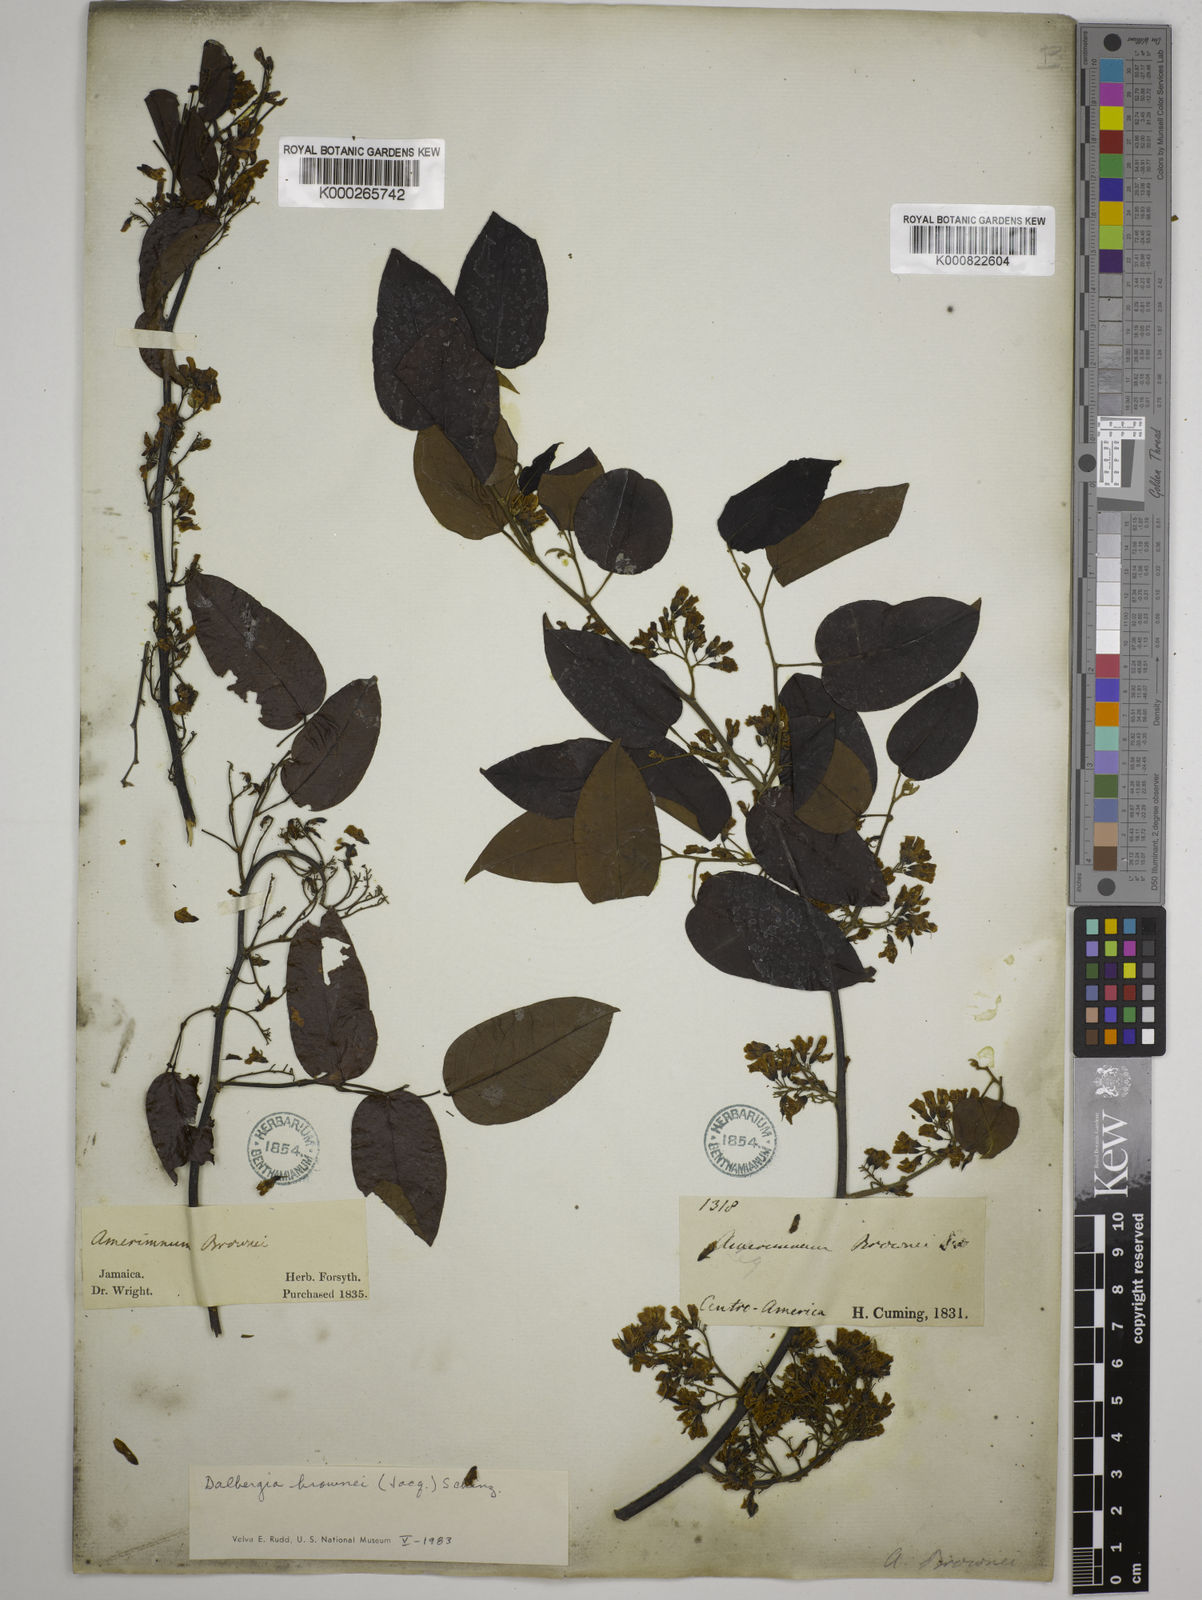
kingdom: Plantae
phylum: Tracheophyta
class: Magnoliopsida
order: Fabales
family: Fabaceae
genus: Dalbergia
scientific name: Dalbergia brownei
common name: Brown's indian rosewood
